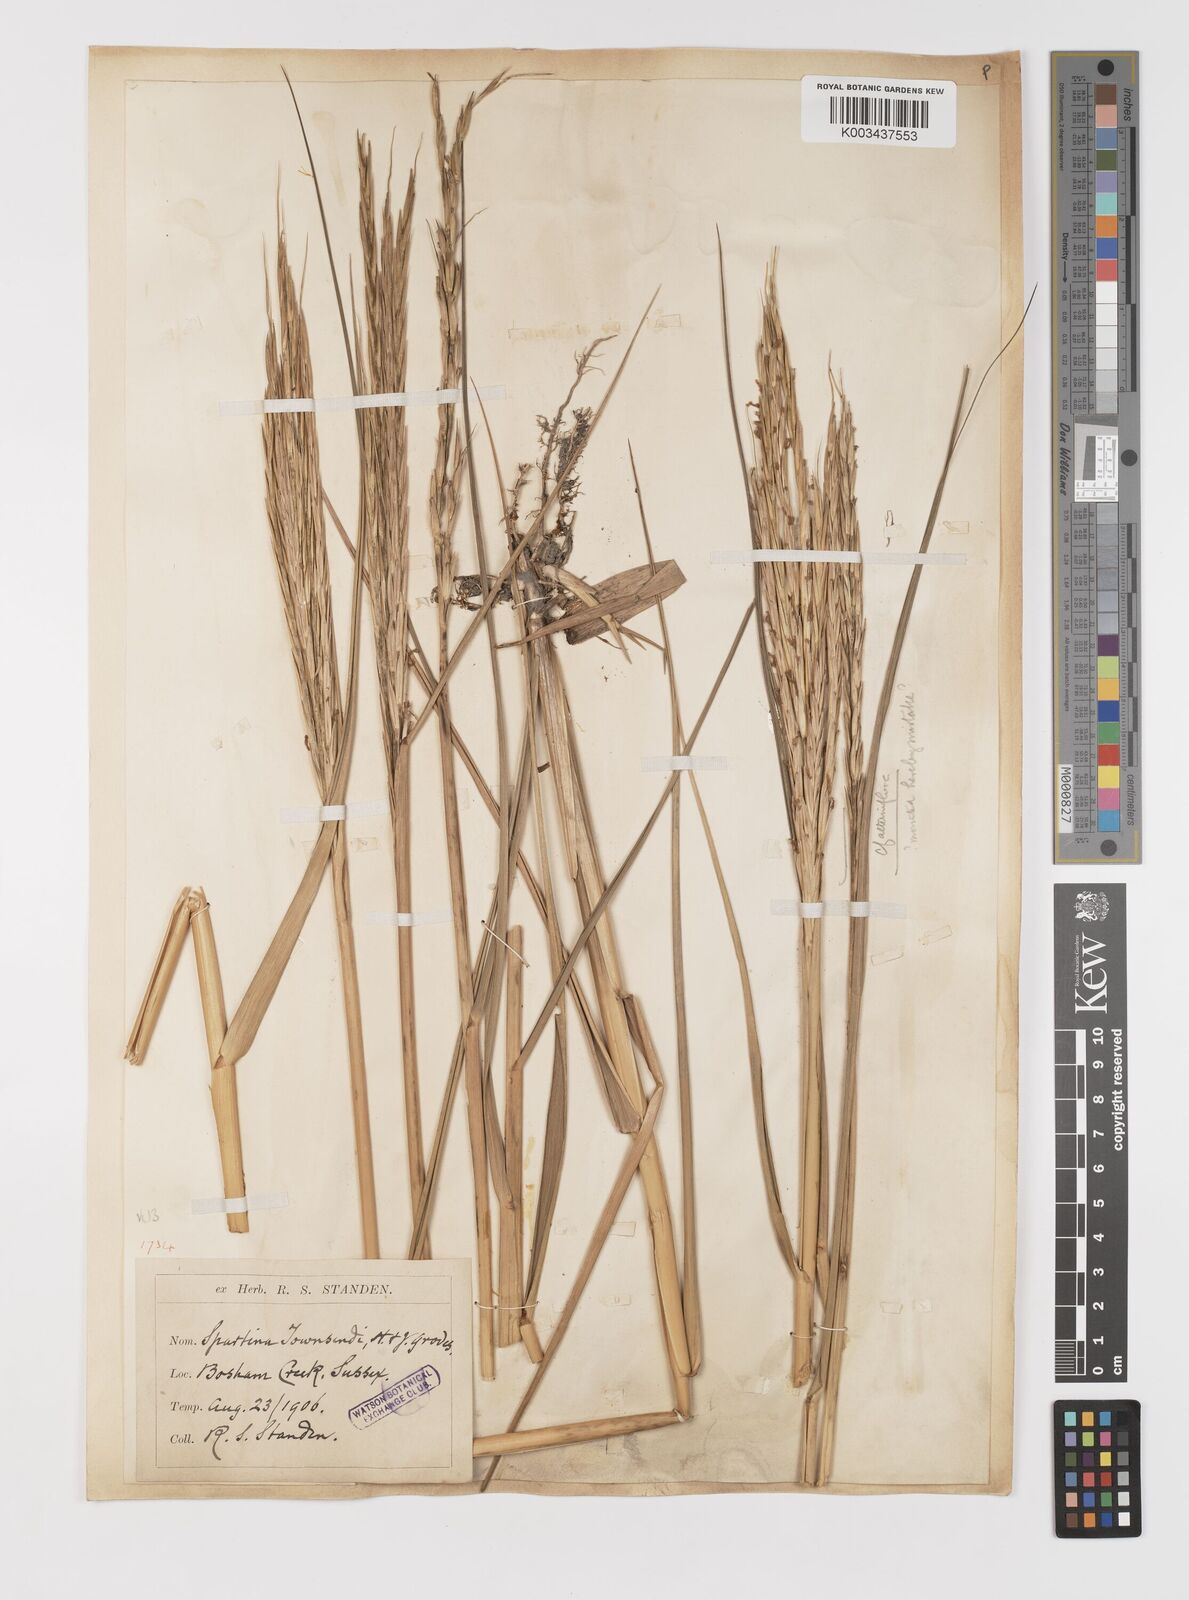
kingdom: Plantae
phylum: Tracheophyta
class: Liliopsida
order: Poales
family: Poaceae
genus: Sporobolus
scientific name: Sporobolus anglicus
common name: English cordgrass
